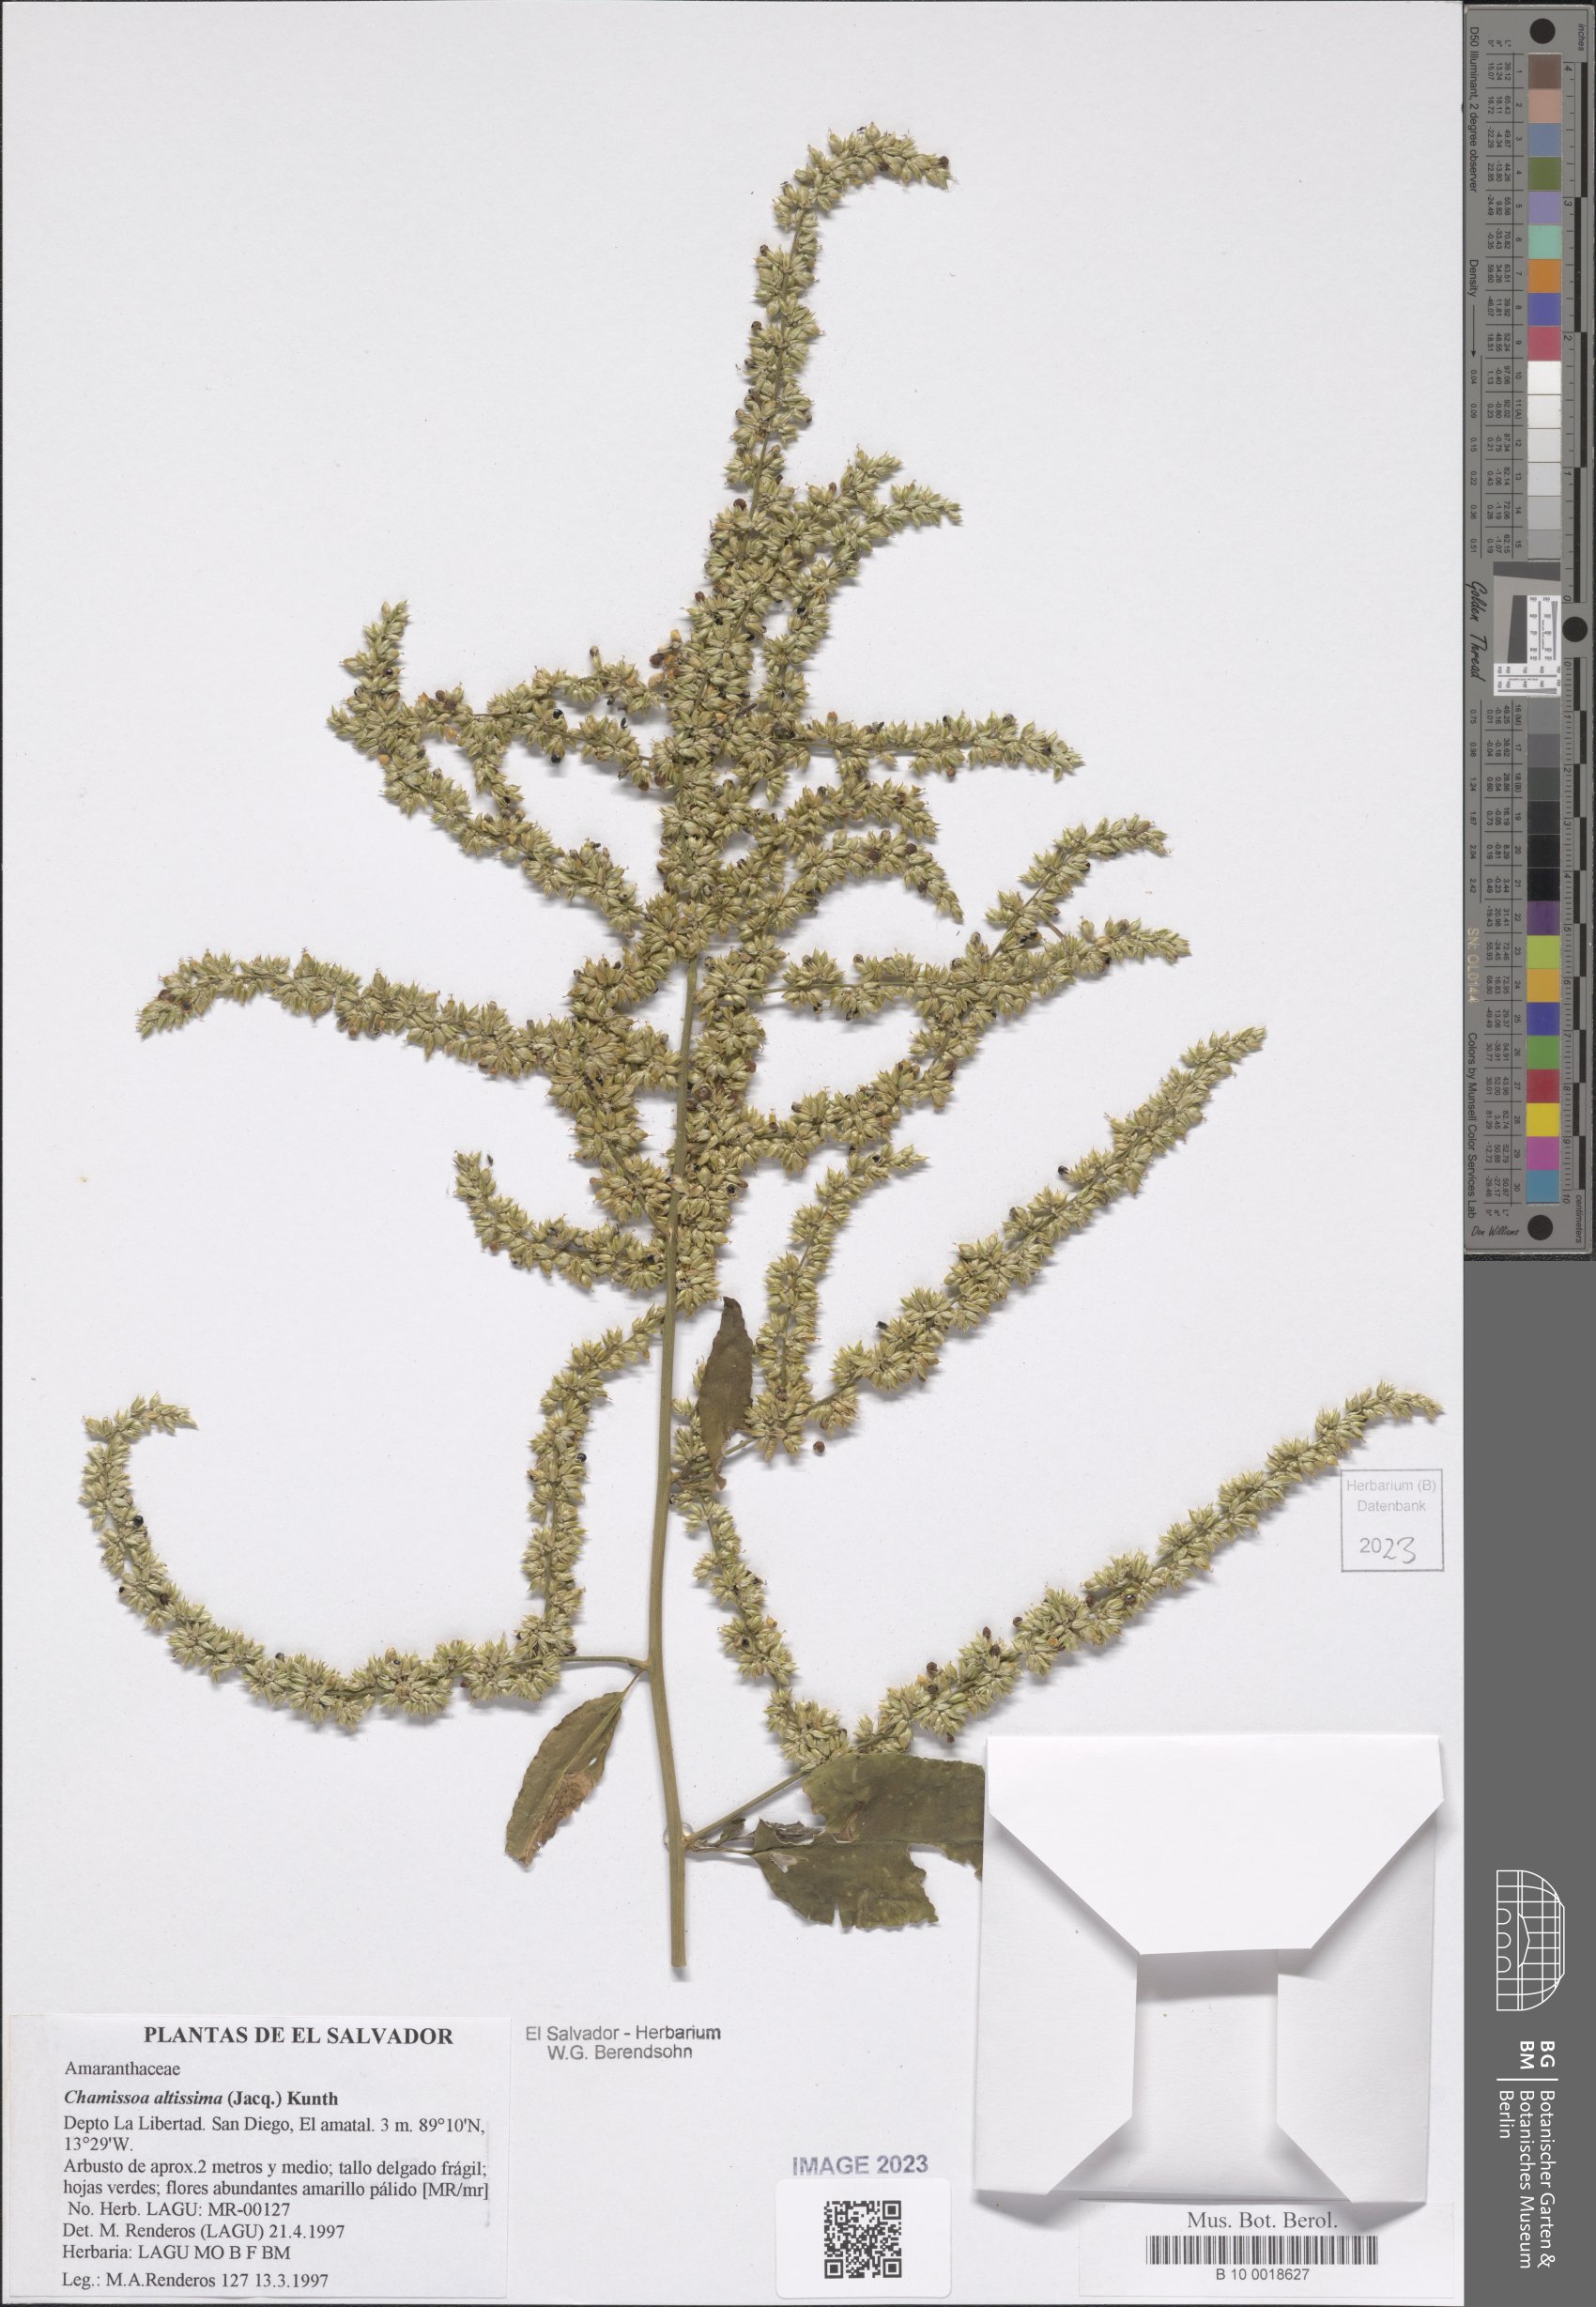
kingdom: Plantae
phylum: Tracheophyta
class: Magnoliopsida
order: Caryophyllales
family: Amaranthaceae
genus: Chamissoa
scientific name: Chamissoa altissima
